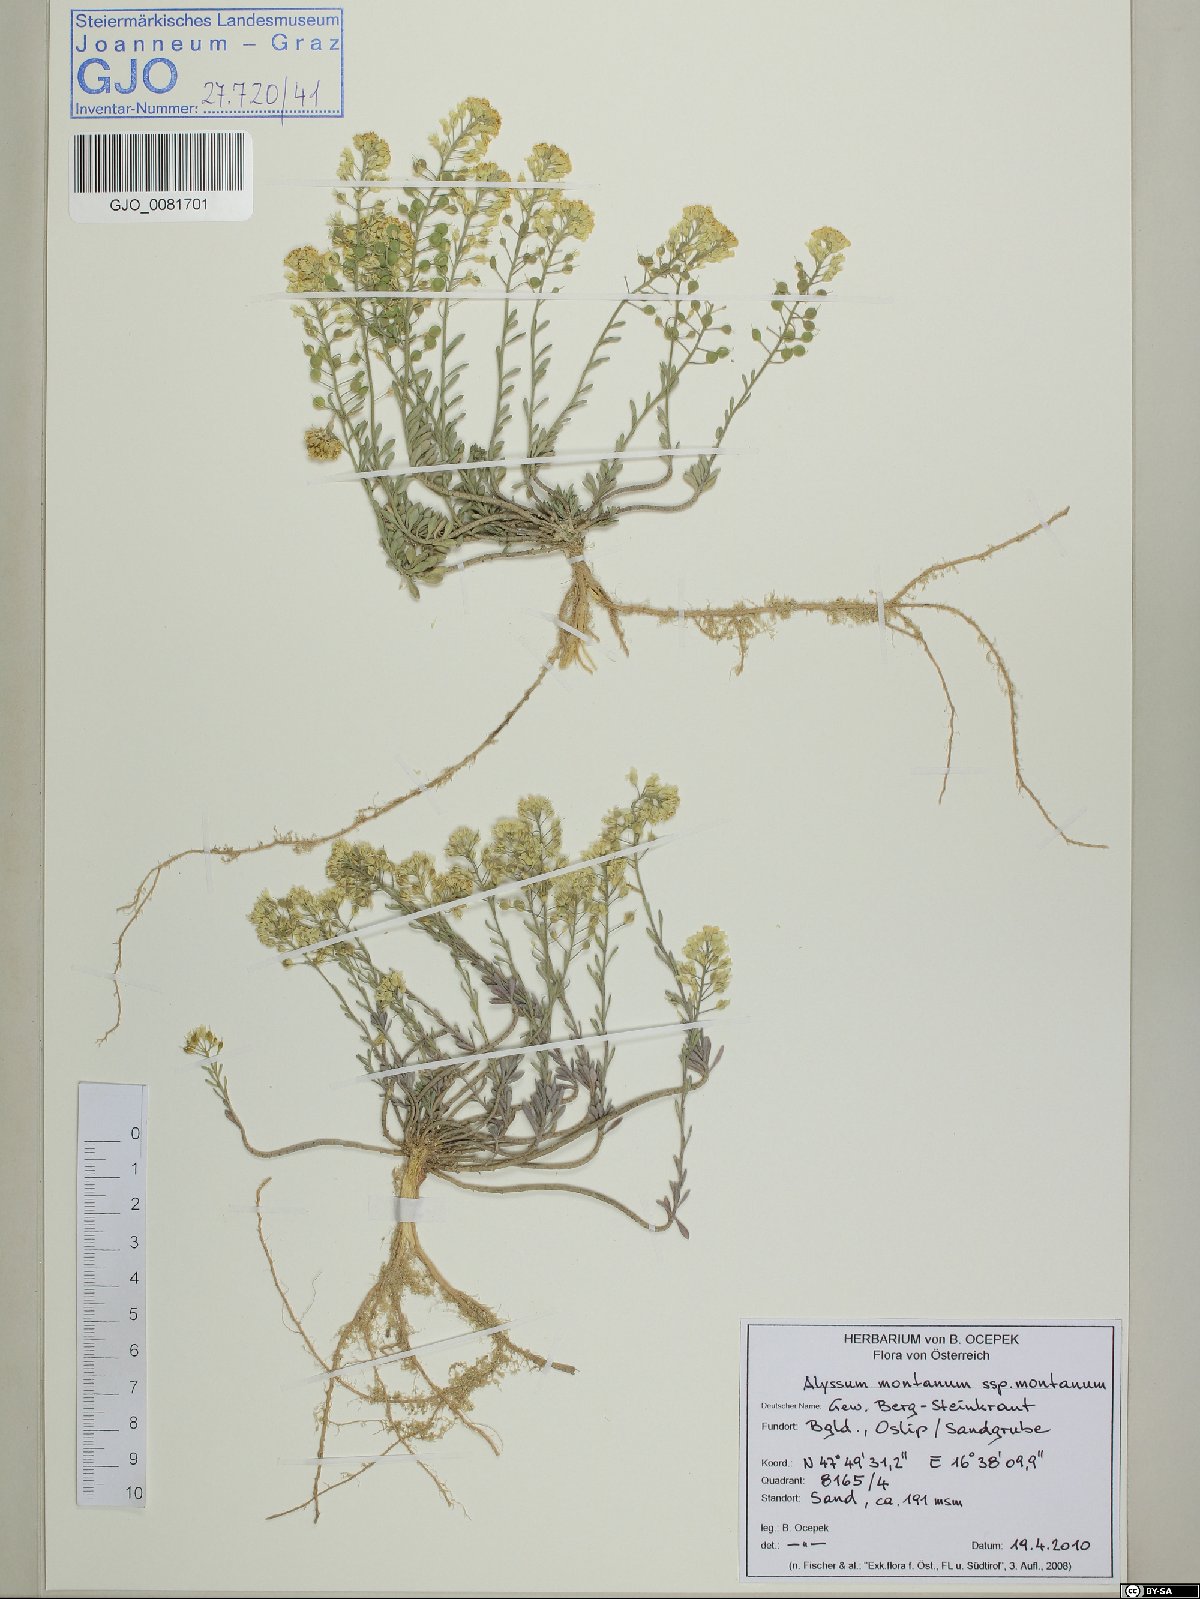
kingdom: Plantae
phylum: Tracheophyta
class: Magnoliopsida
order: Brassicales
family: Brassicaceae
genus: Alyssum
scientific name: Alyssum montanum
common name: Mountain alison
